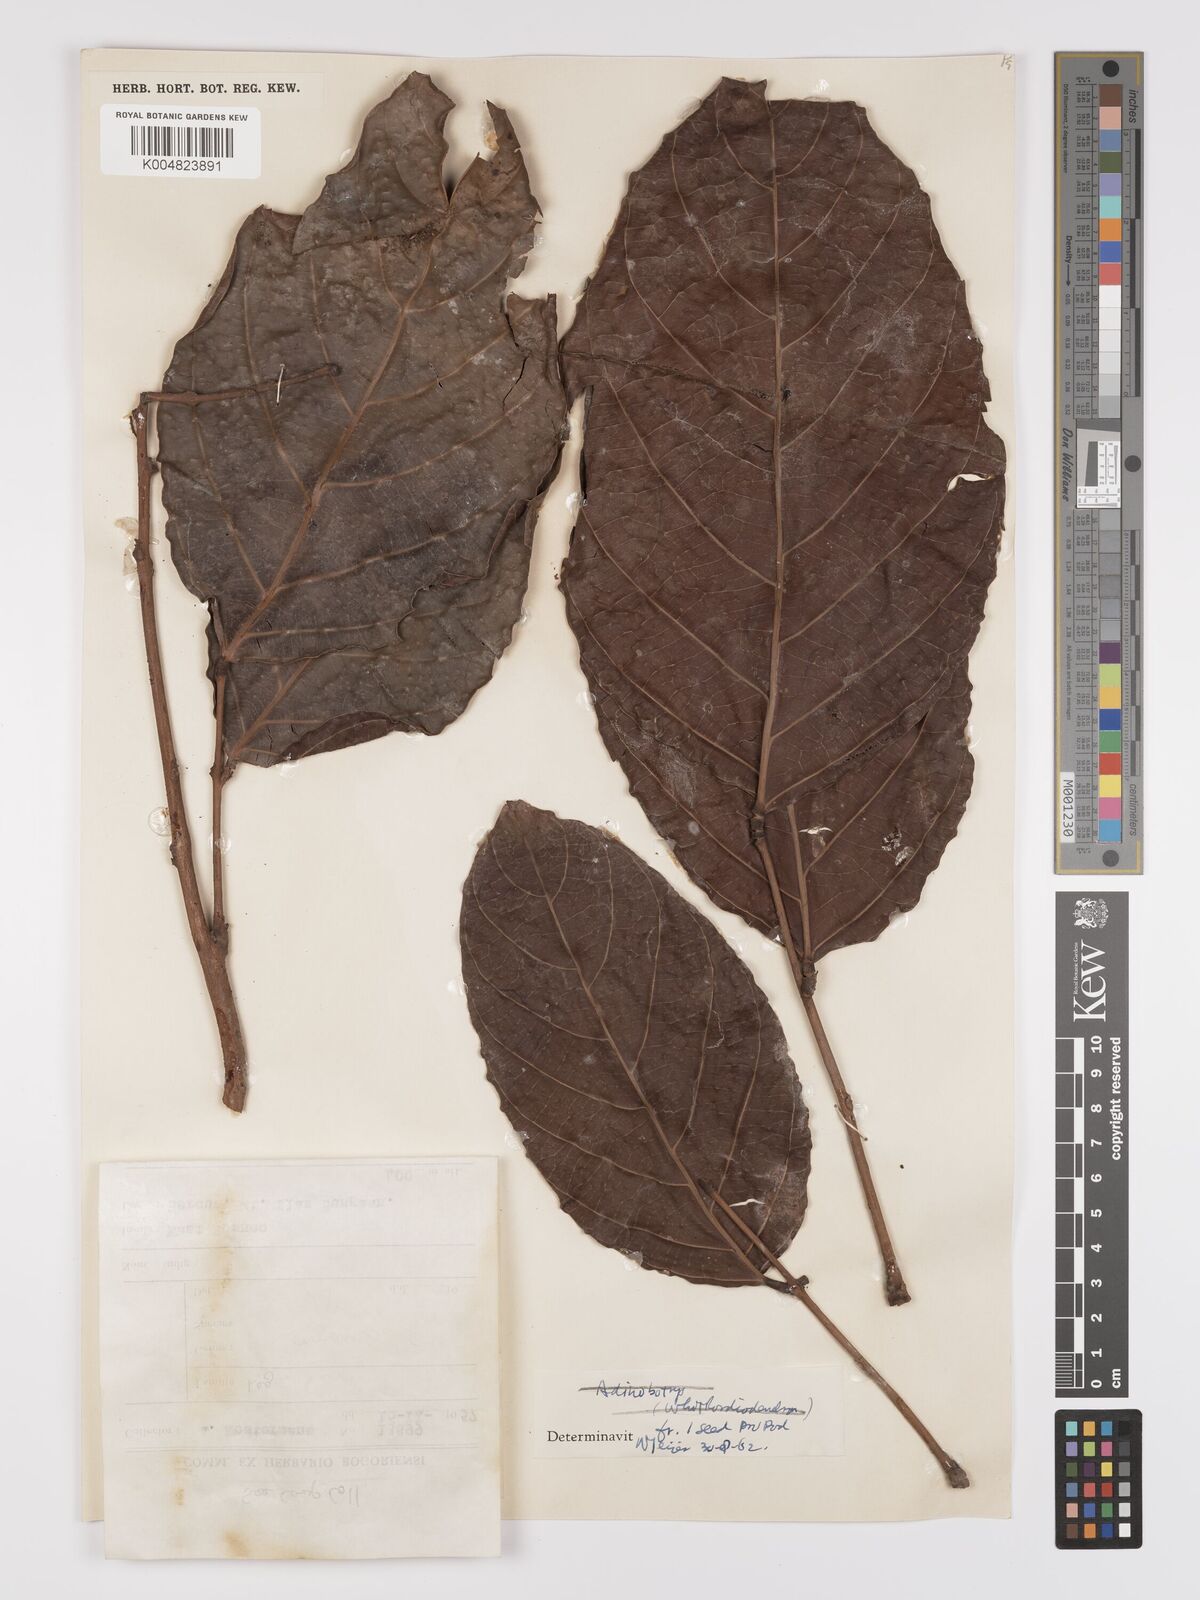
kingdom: Plantae
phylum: Tracheophyta
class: Magnoliopsida
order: Oxalidales
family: Connaraceae
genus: Connarus
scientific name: Connarus grandis
